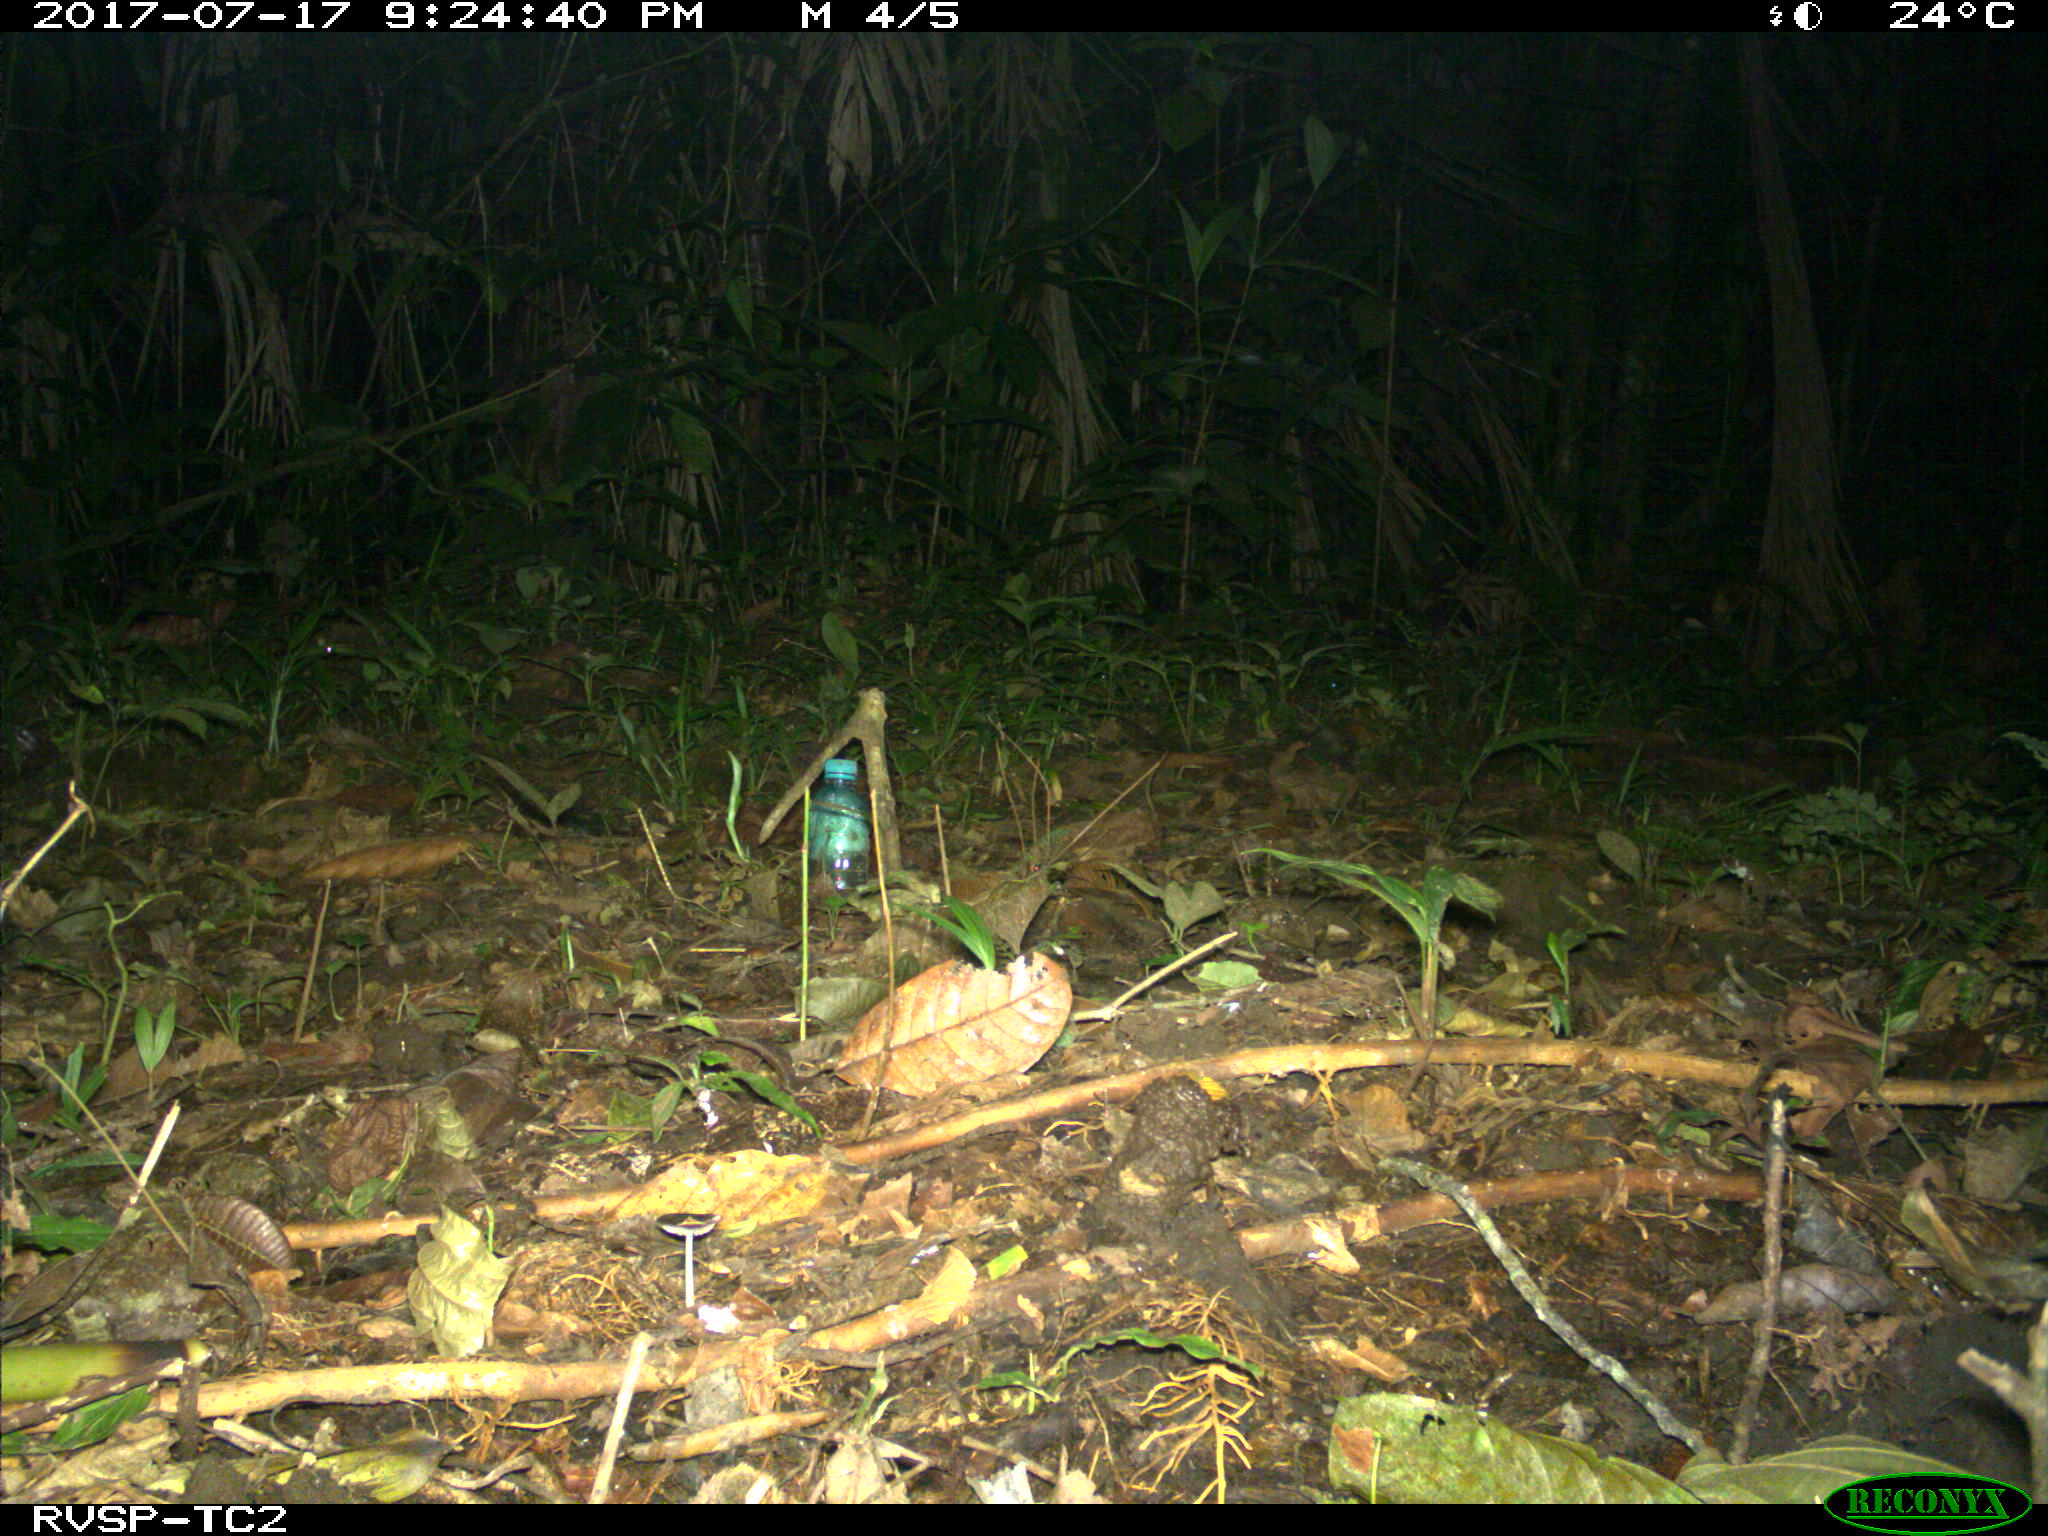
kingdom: Animalia
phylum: Chordata
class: Mammalia
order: Carnivora
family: Felidae
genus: Leopardus
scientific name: Leopardus pardalis
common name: Ocelot
